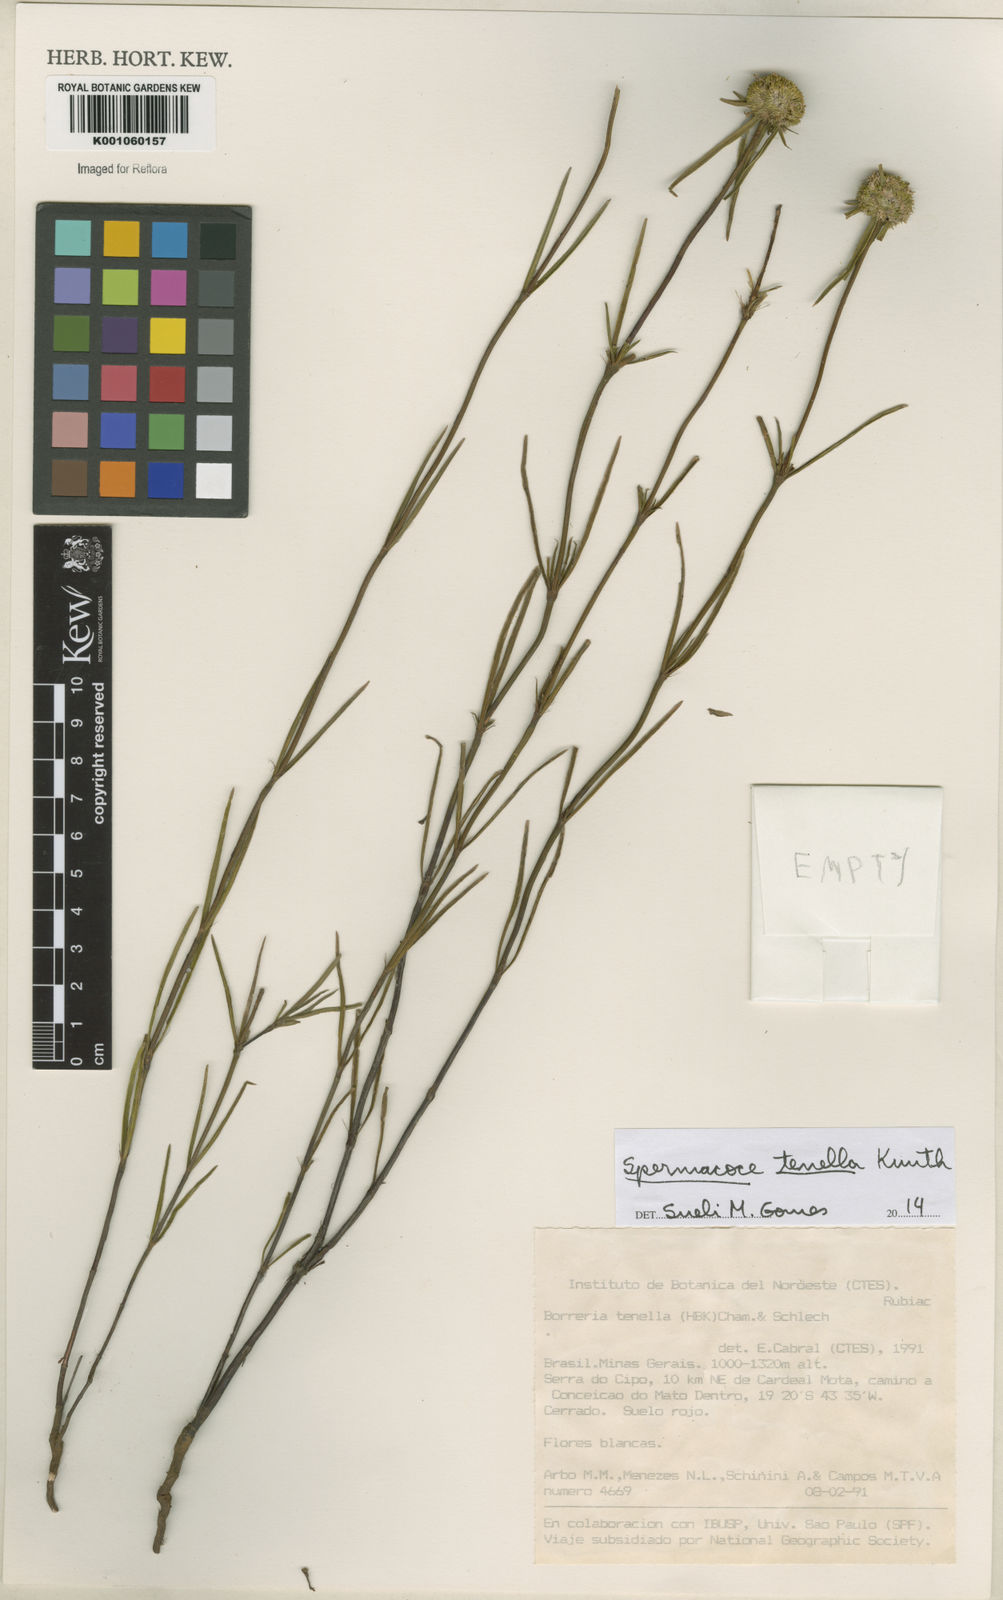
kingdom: Plantae
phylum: Tracheophyta
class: Magnoliopsida
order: Gentianales
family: Rubiaceae
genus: Spermacoce
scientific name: Spermacoce orinocensis
